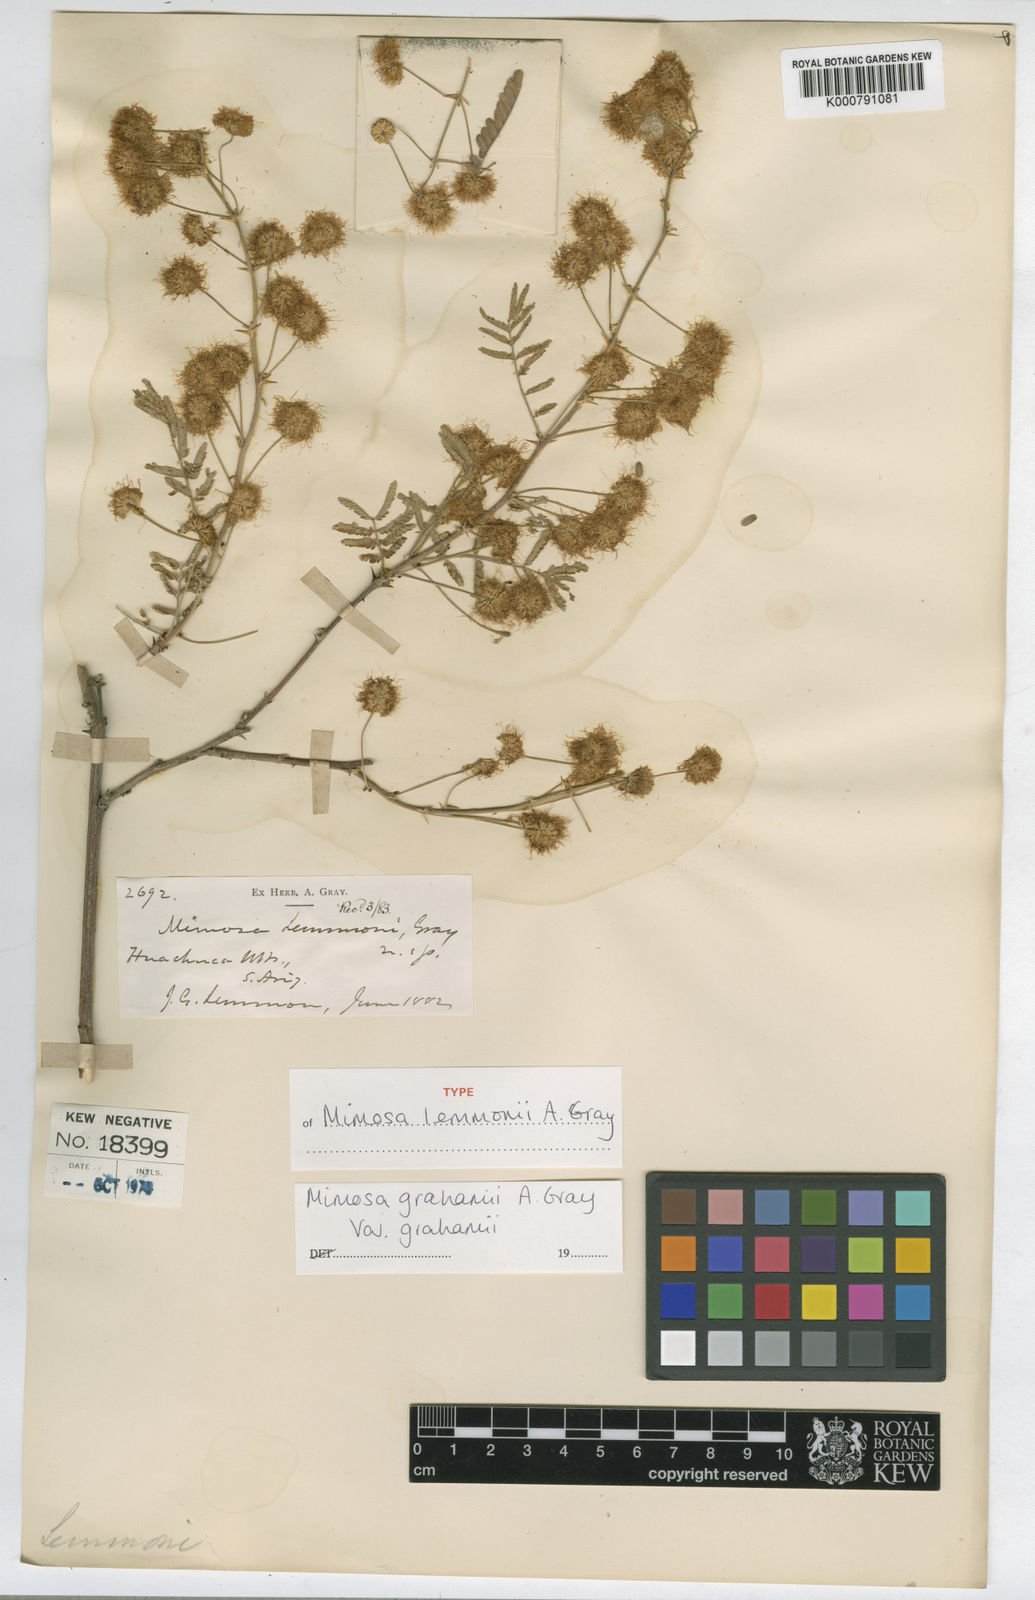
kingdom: Plantae
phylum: Tracheophyta
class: Magnoliopsida
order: Fabales
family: Fabaceae
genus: Mimosa
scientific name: Mimosa grahamii
